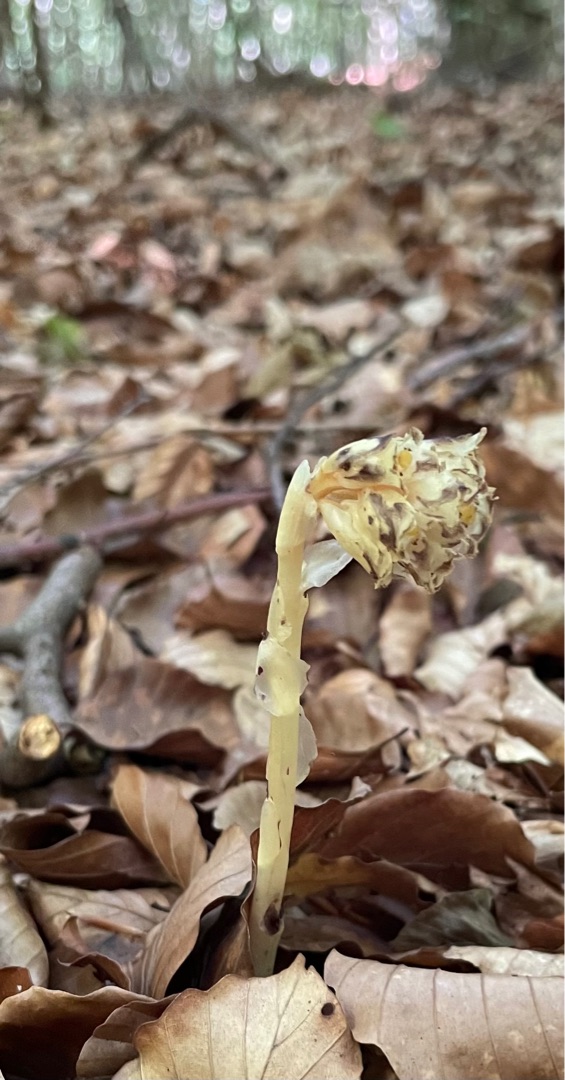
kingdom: Plantae
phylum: Tracheophyta
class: Magnoliopsida
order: Ericales
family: Ericaceae
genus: Hypopitys
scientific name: Hypopitys monotropa
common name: Snylterod
